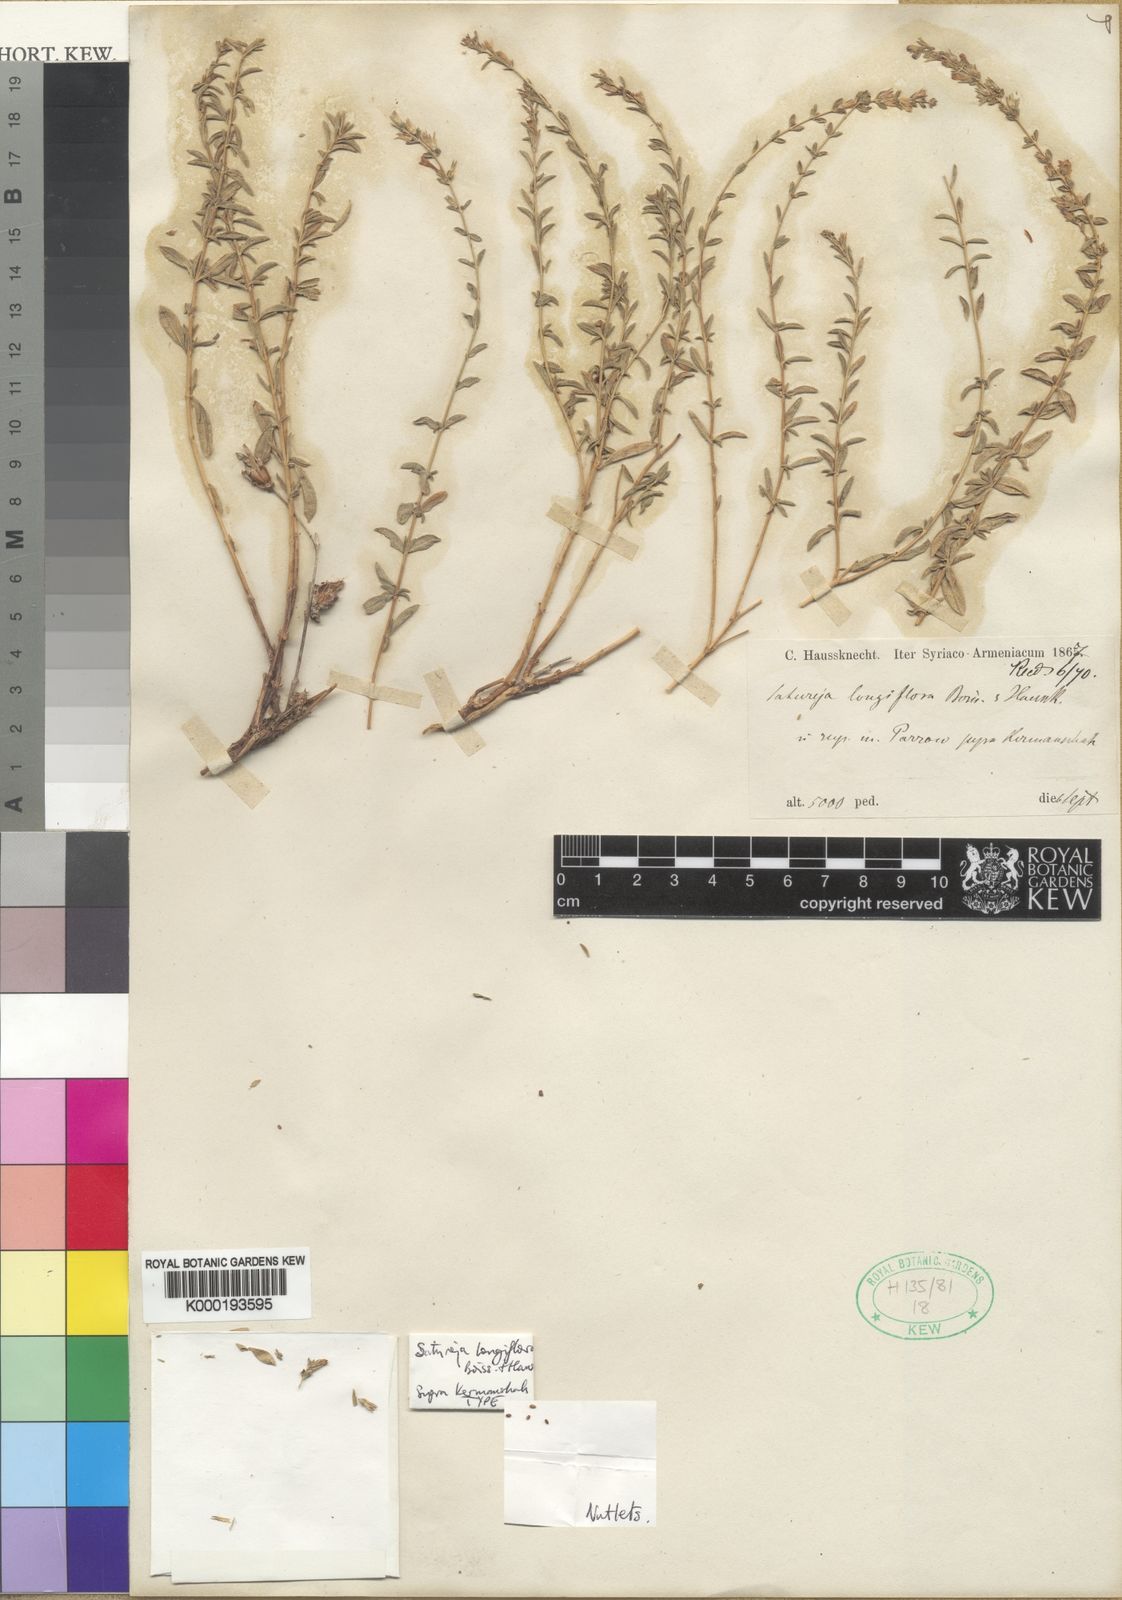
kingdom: Plantae
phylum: Tracheophyta
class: Magnoliopsida
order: Lamiales
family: Lamiaceae
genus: Satureja
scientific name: Satureja edmondii
